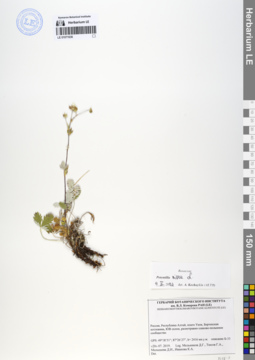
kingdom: Plantae
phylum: Tracheophyta
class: Magnoliopsida
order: Rosales
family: Rosaceae
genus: Potentilla
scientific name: Potentilla nivea
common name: Snow cinquefoil
